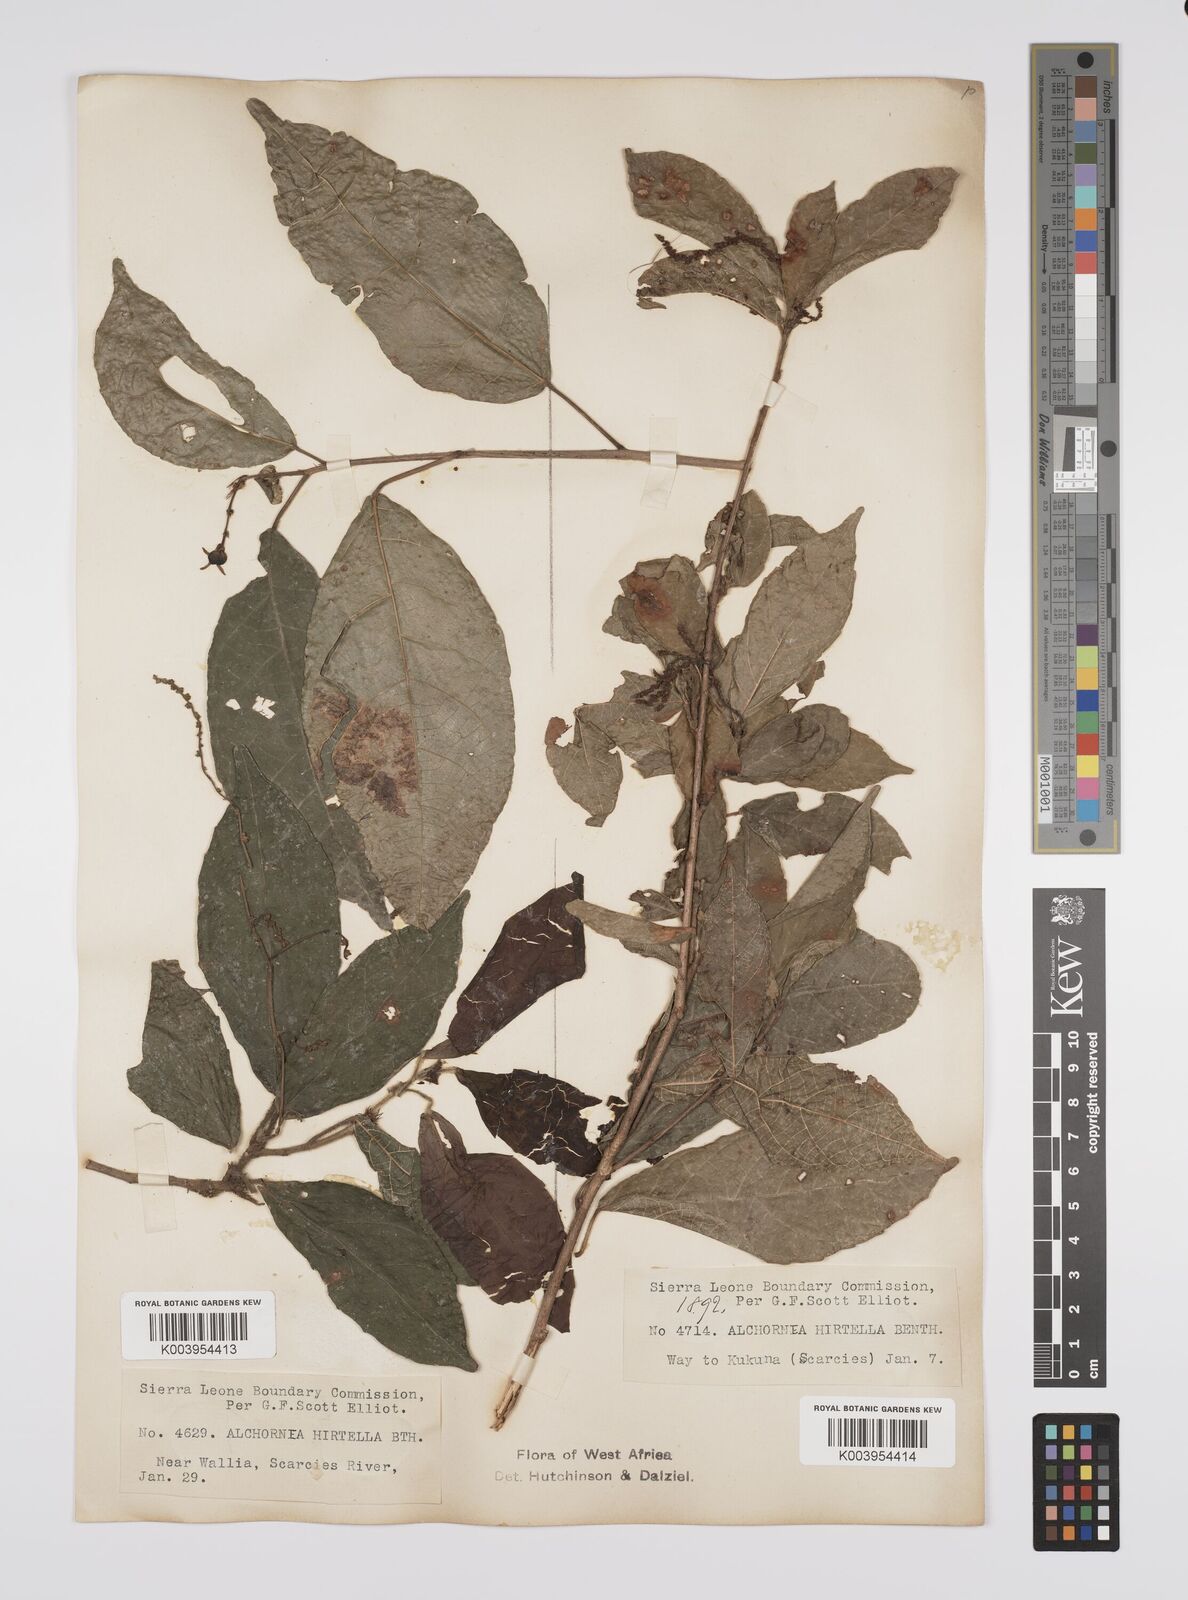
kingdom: Plantae
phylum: Tracheophyta
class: Magnoliopsida
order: Malpighiales
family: Euphorbiaceae
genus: Alchornea
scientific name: Alchornea hirtella
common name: Forest bead-string
